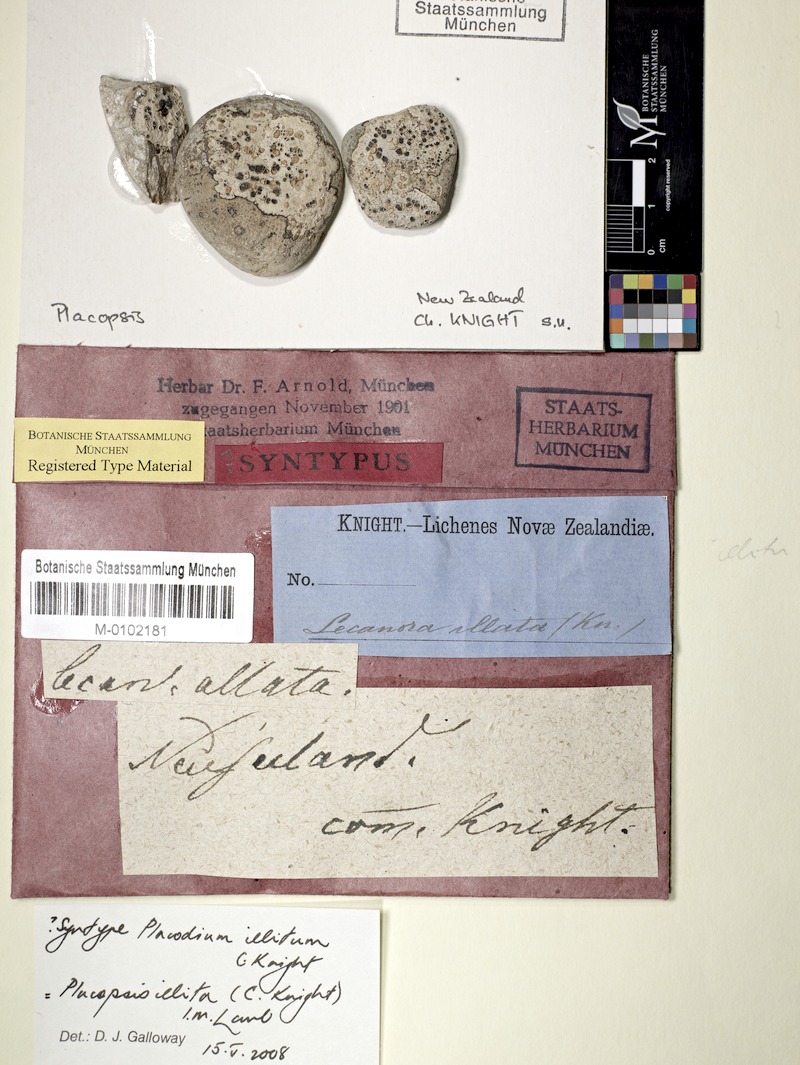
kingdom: Fungi
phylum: Ascomycota
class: Lecanoromycetes
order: Baeomycetales
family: Trapeliaceae
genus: Placopsis
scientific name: Placopsis illita
